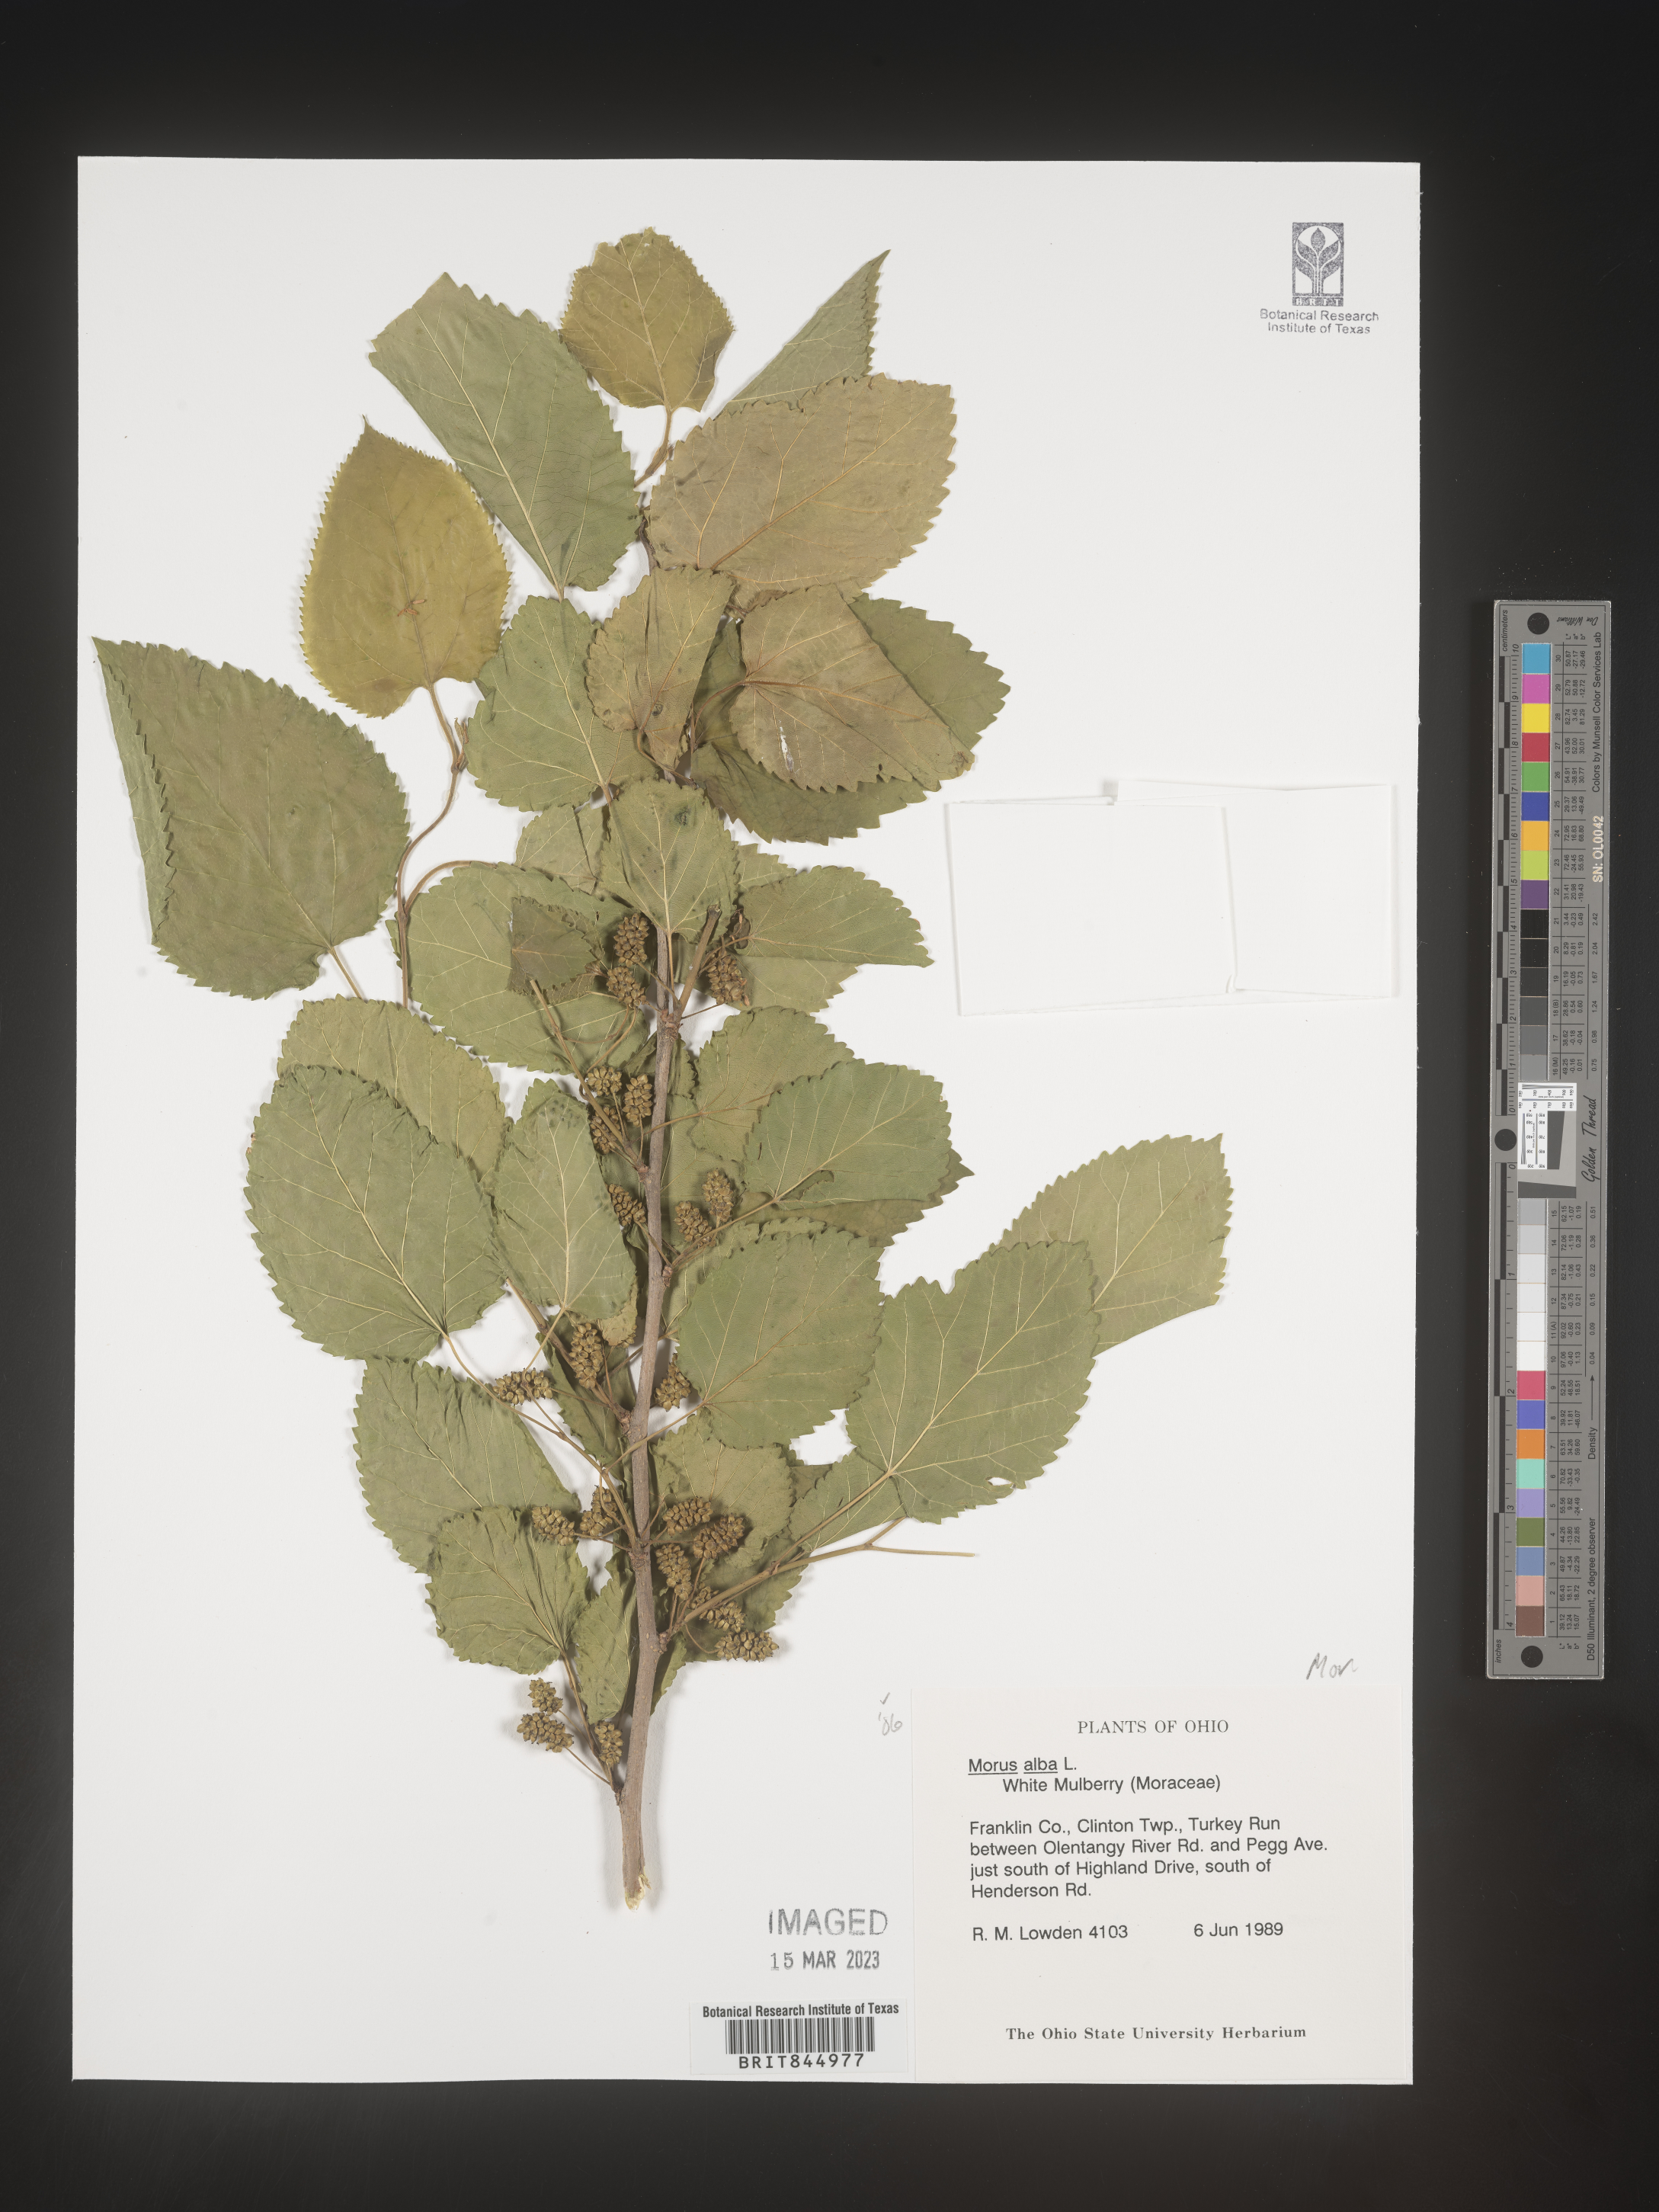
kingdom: Plantae
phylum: Tracheophyta
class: Magnoliopsida
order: Rosales
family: Moraceae
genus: Morus
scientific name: Morus alba
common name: White mulberry
